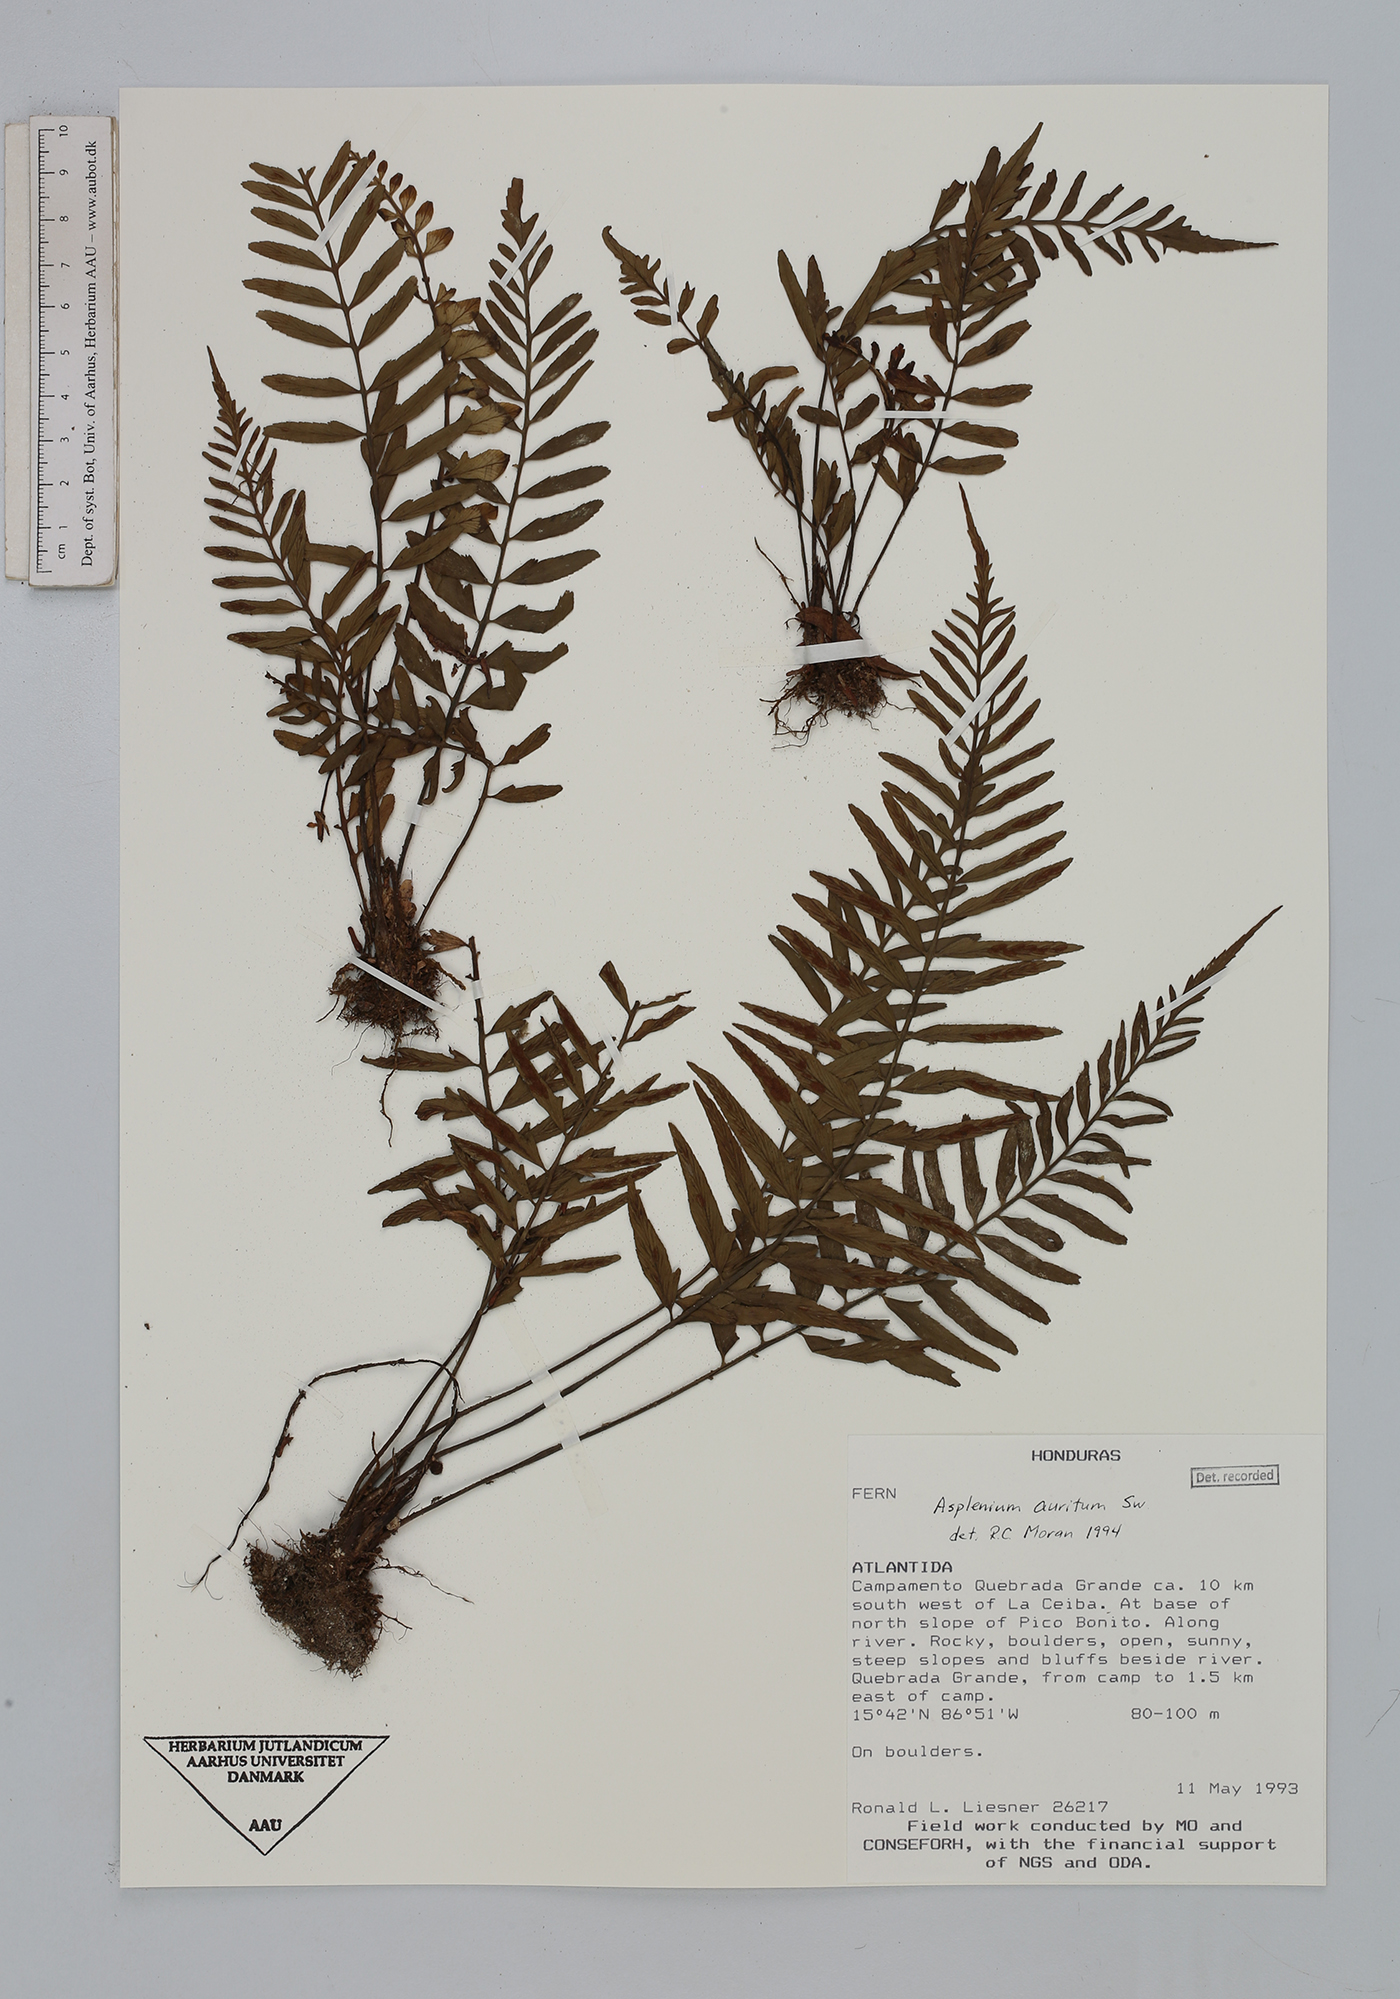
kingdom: Plantae
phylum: Tracheophyta
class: Polypodiopsida
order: Polypodiales
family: Aspleniaceae
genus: Asplenium
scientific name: Asplenium auritum
